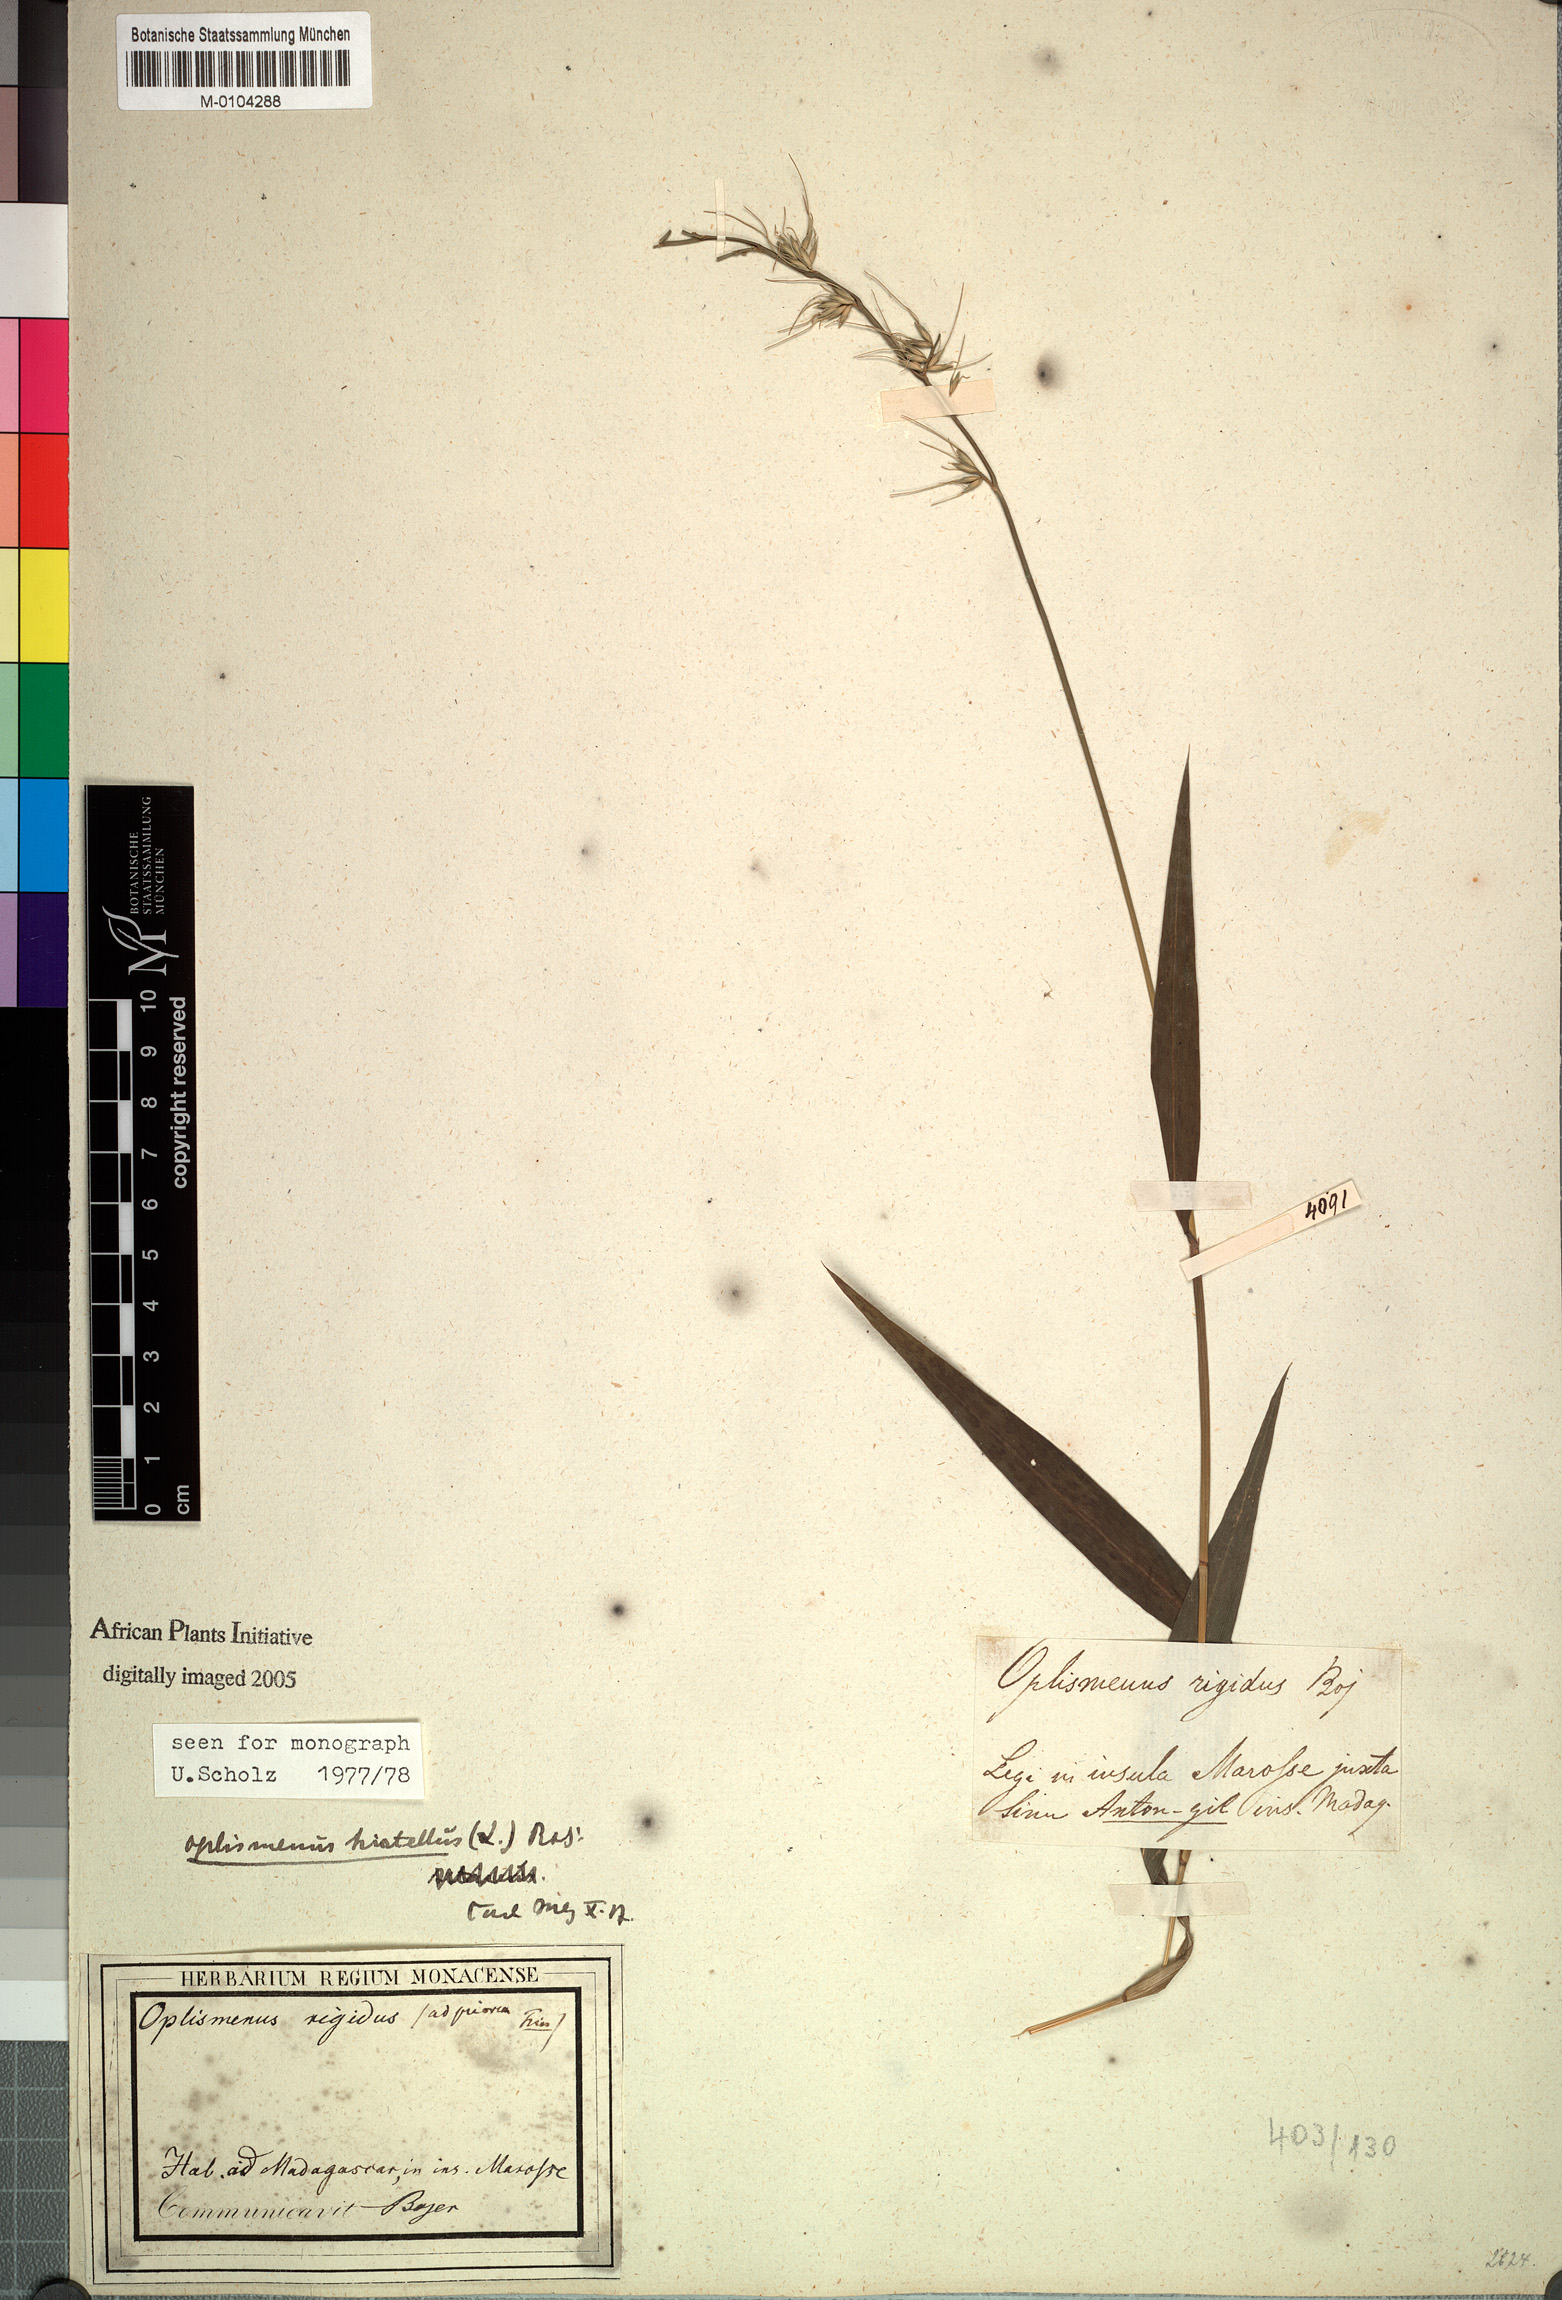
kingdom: Plantae
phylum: Tracheophyta
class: Liliopsida
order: Poales
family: Poaceae
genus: Oplismenus
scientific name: Oplismenus hirtellus
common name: Basketgrass
